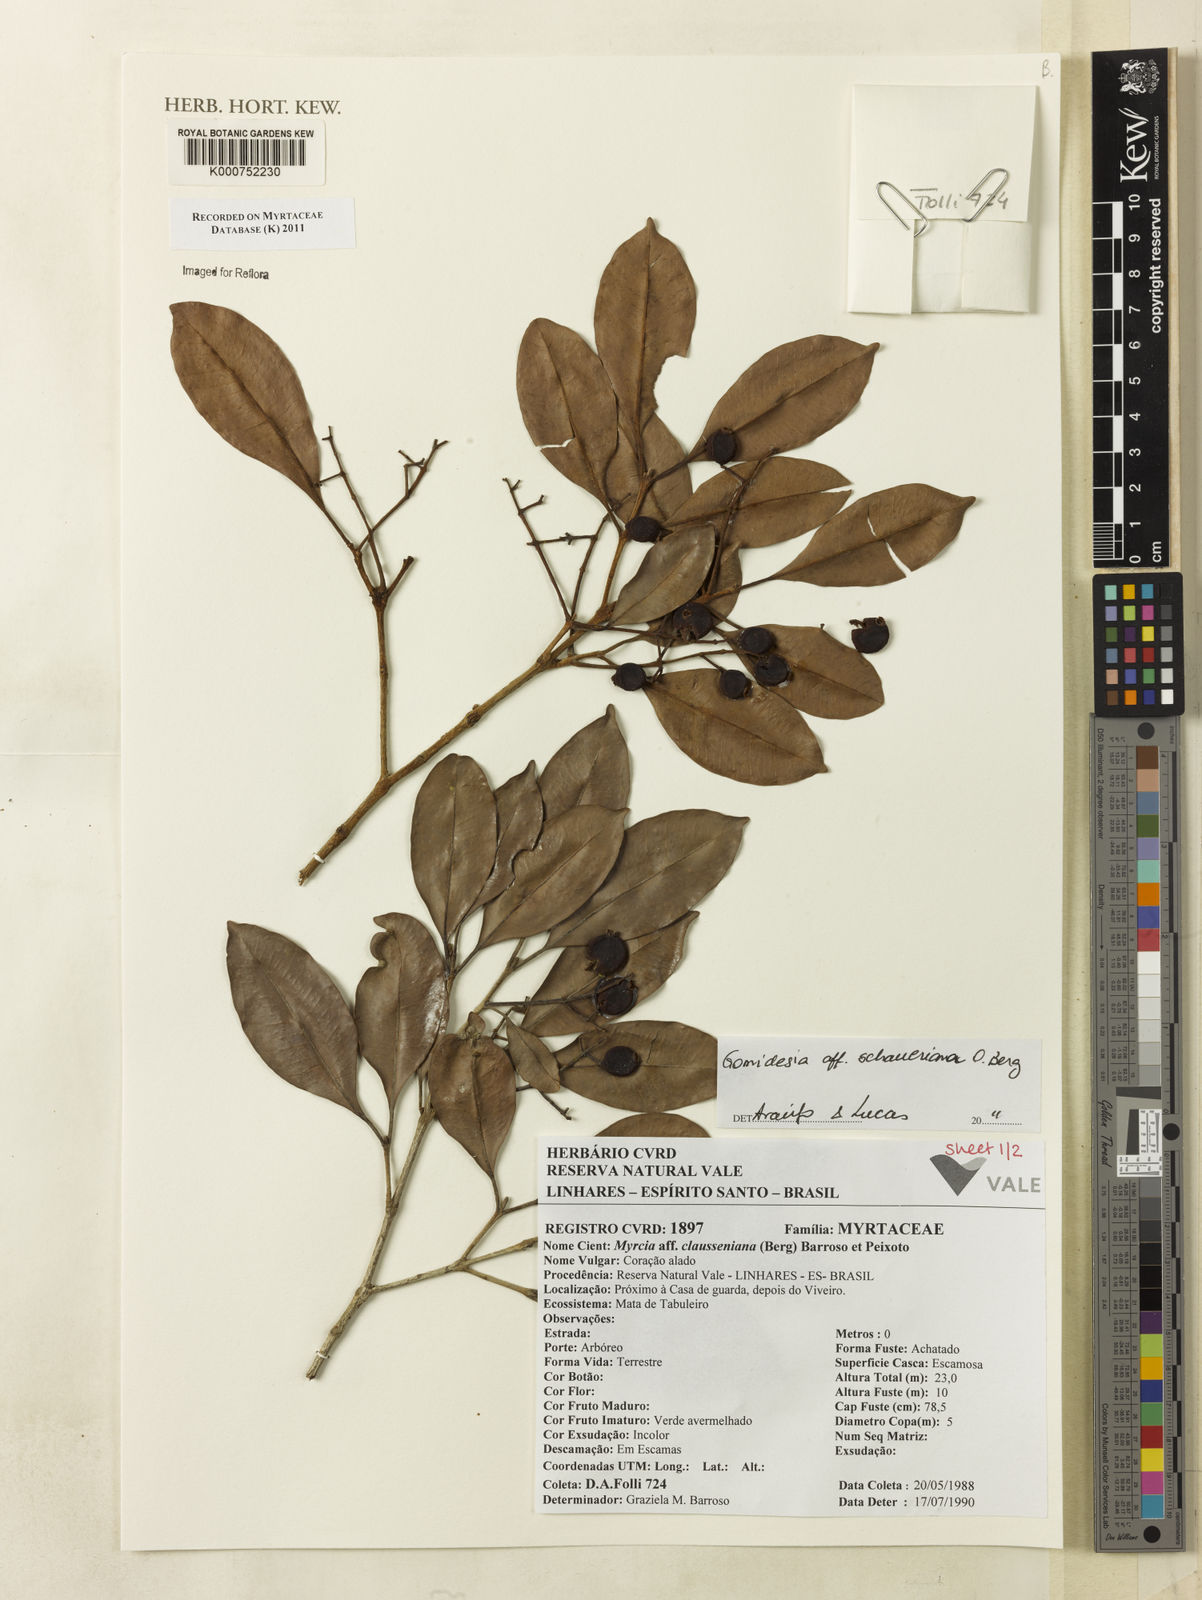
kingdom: Plantae
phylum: Tracheophyta
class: Magnoliopsida
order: Myrtales
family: Myrtaceae
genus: Myrcia
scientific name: Myrcia freyreissiana
